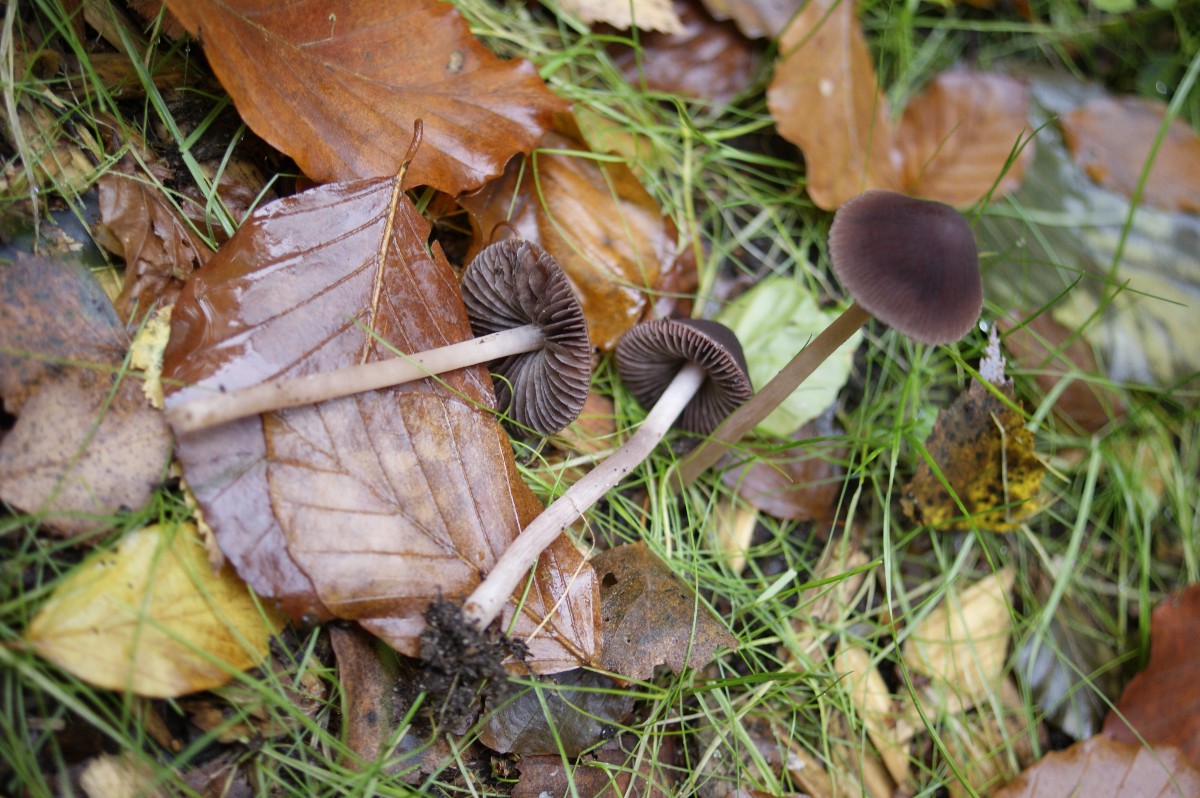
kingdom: Fungi
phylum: Basidiomycota
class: Agaricomycetes
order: Agaricales
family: Psathyrellaceae
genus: Psathyrella
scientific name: Psathyrella bipellis
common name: vinrød mørkhat
